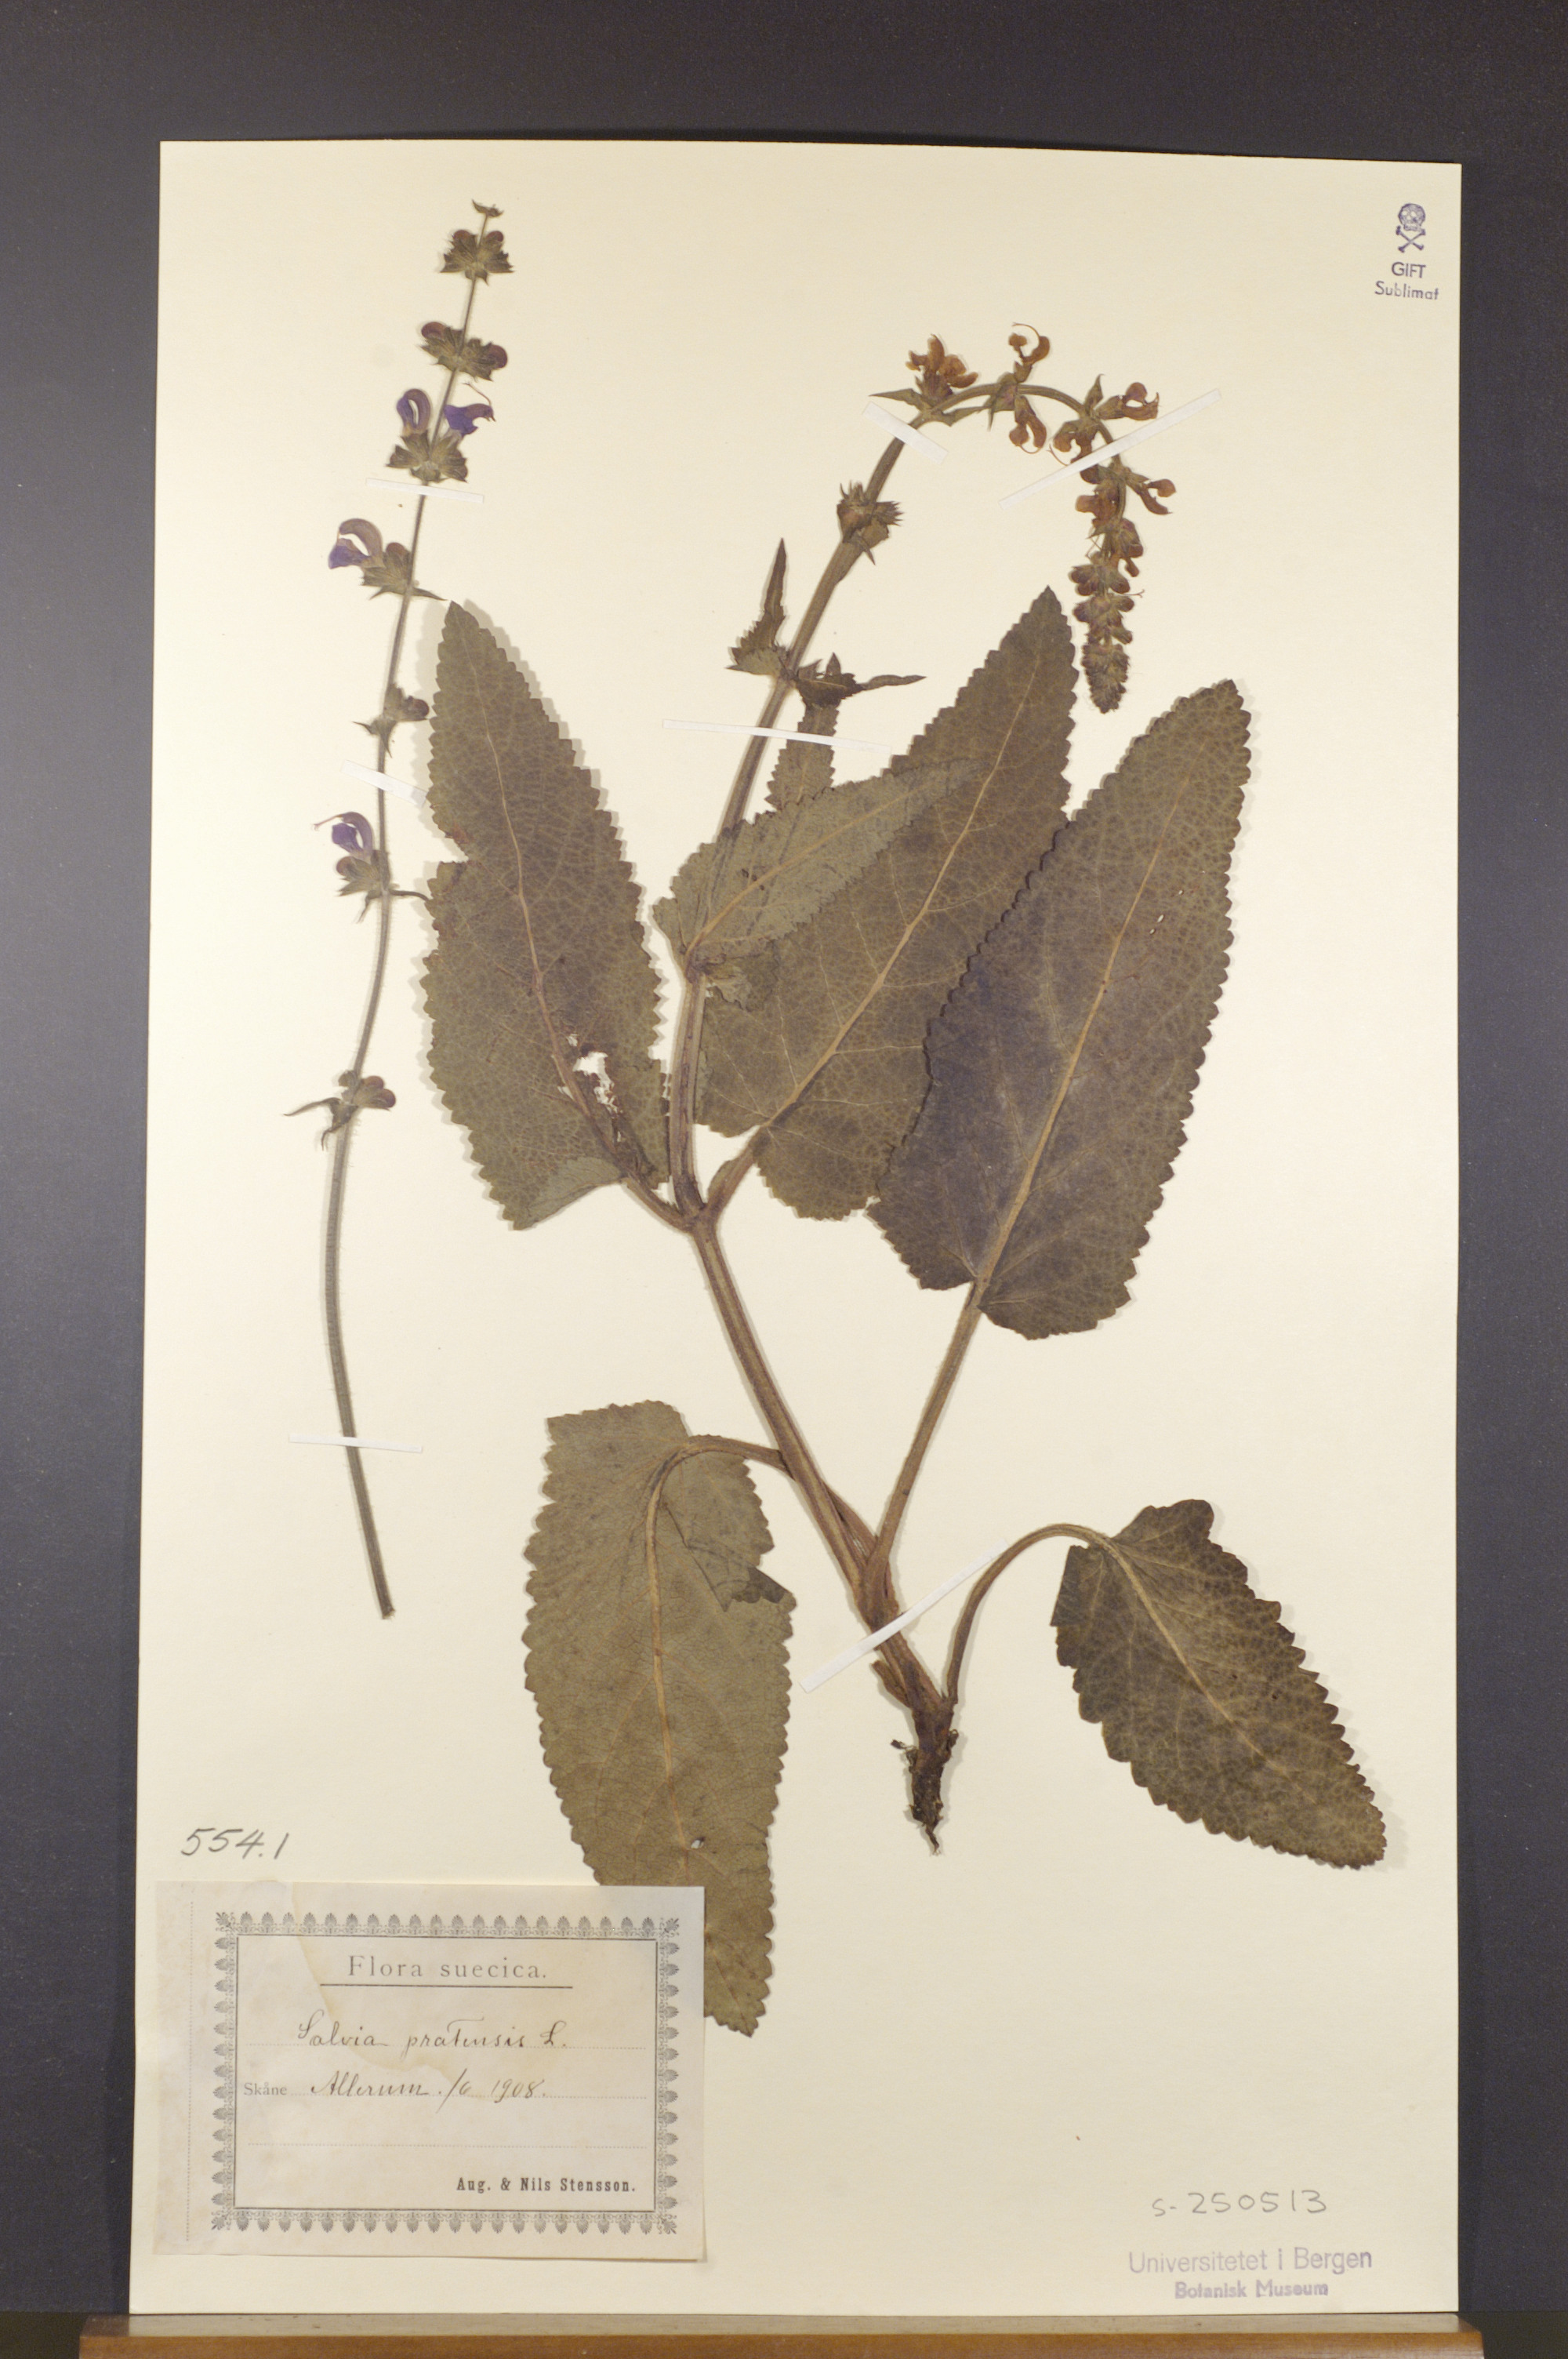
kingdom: Plantae
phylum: Tracheophyta
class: Magnoliopsida
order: Lamiales
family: Lamiaceae
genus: Salvia
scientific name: Salvia pratensis
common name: Meadow sage
